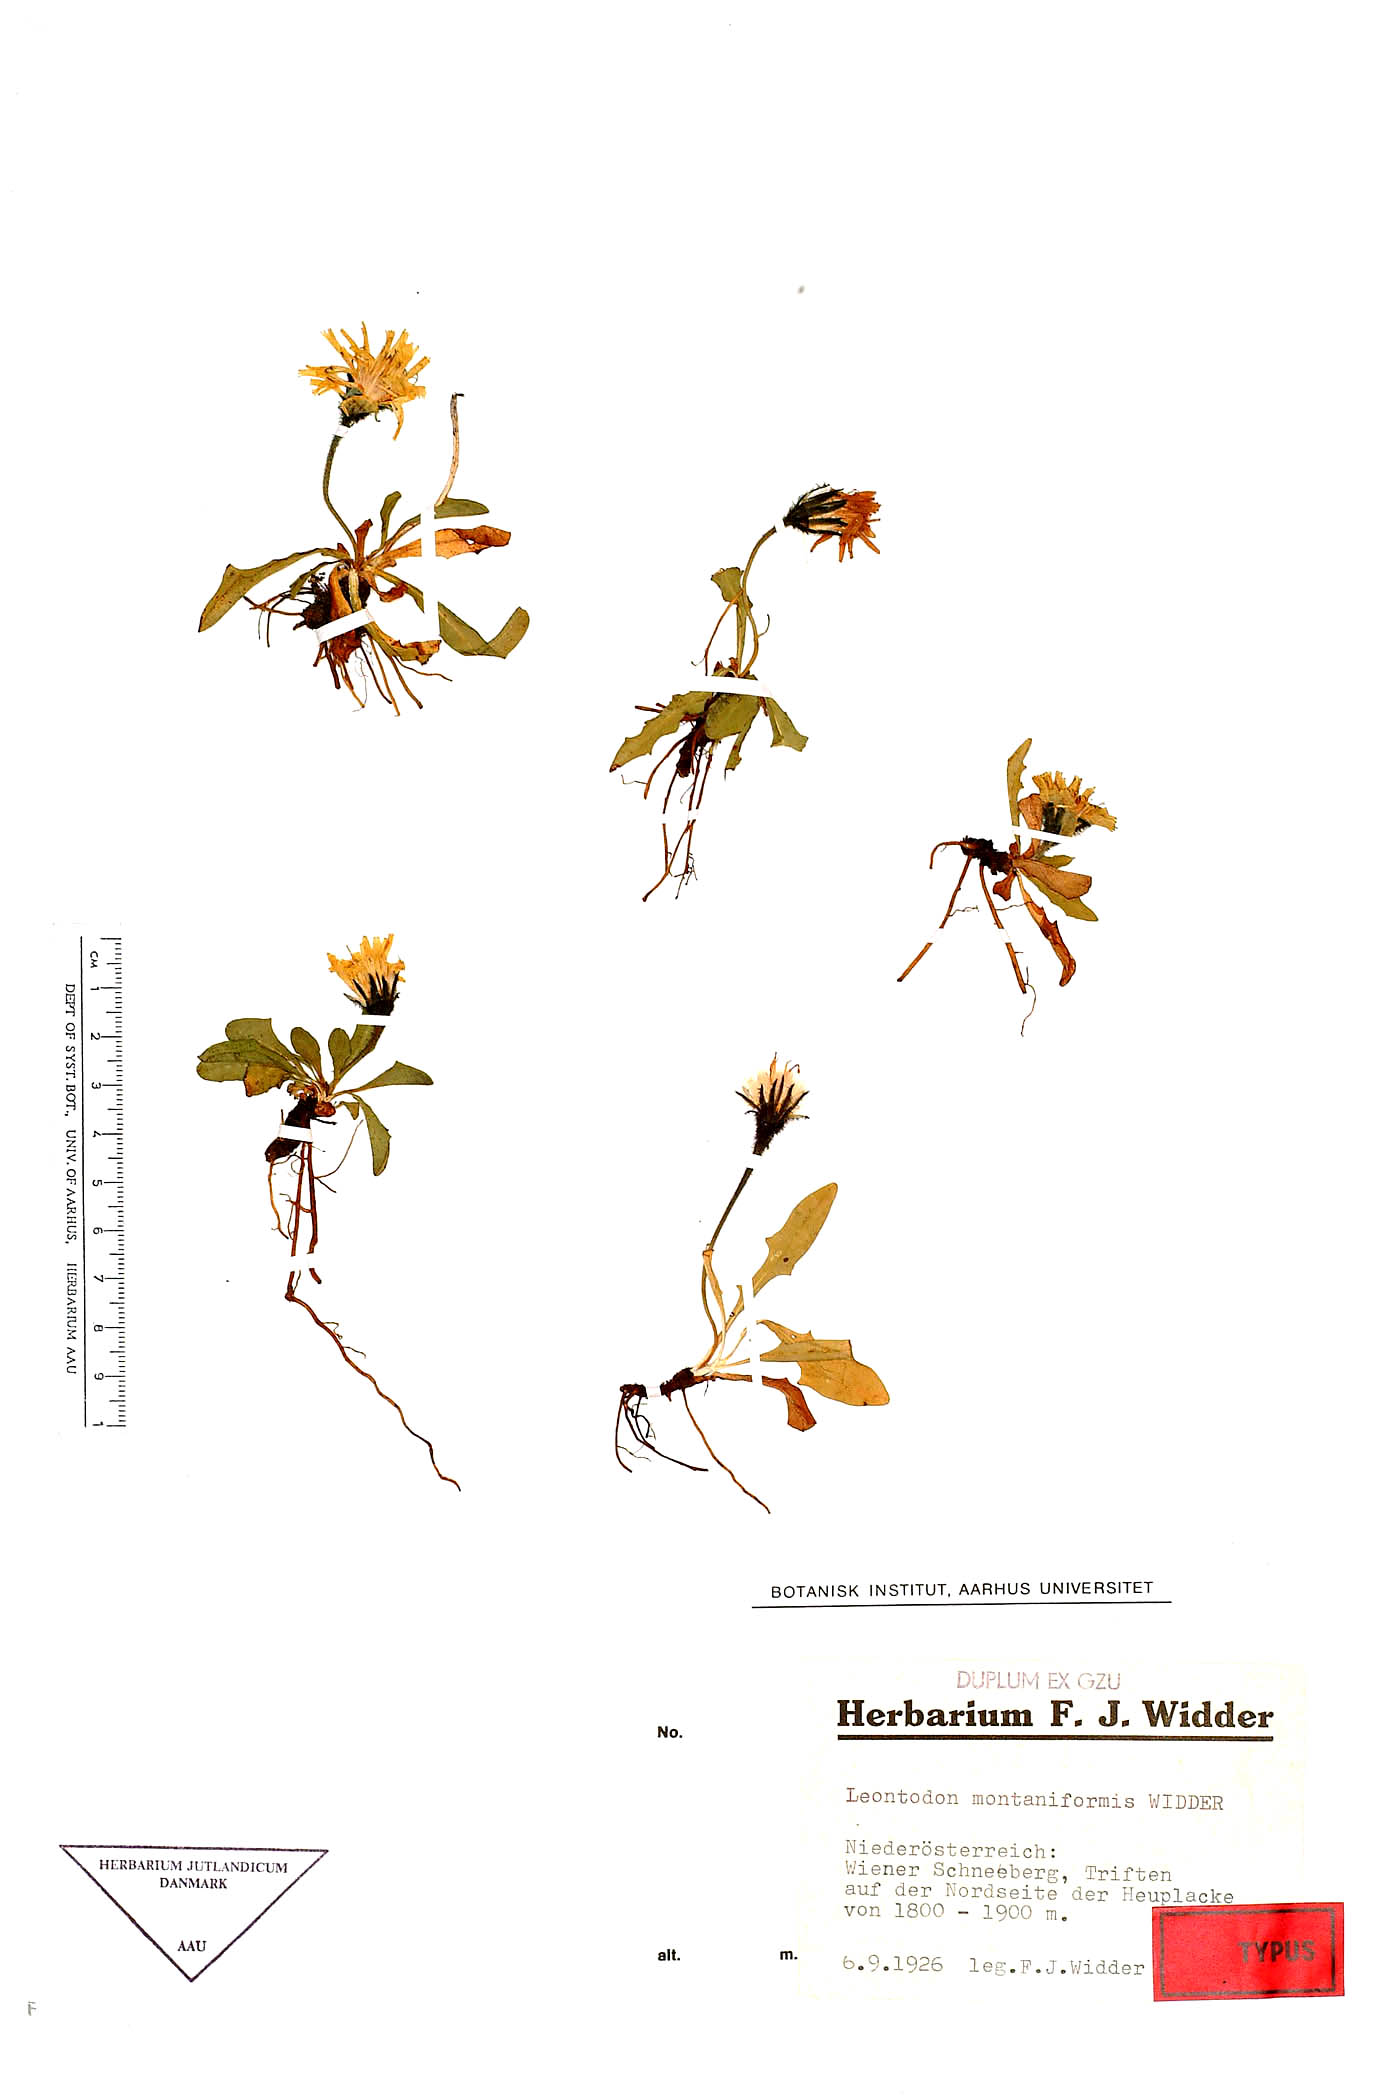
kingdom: Plantae
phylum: Tracheophyta
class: Magnoliopsida
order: Asterales
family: Asteraceae
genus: Scorzoneroides
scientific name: Scorzoneroides montana
